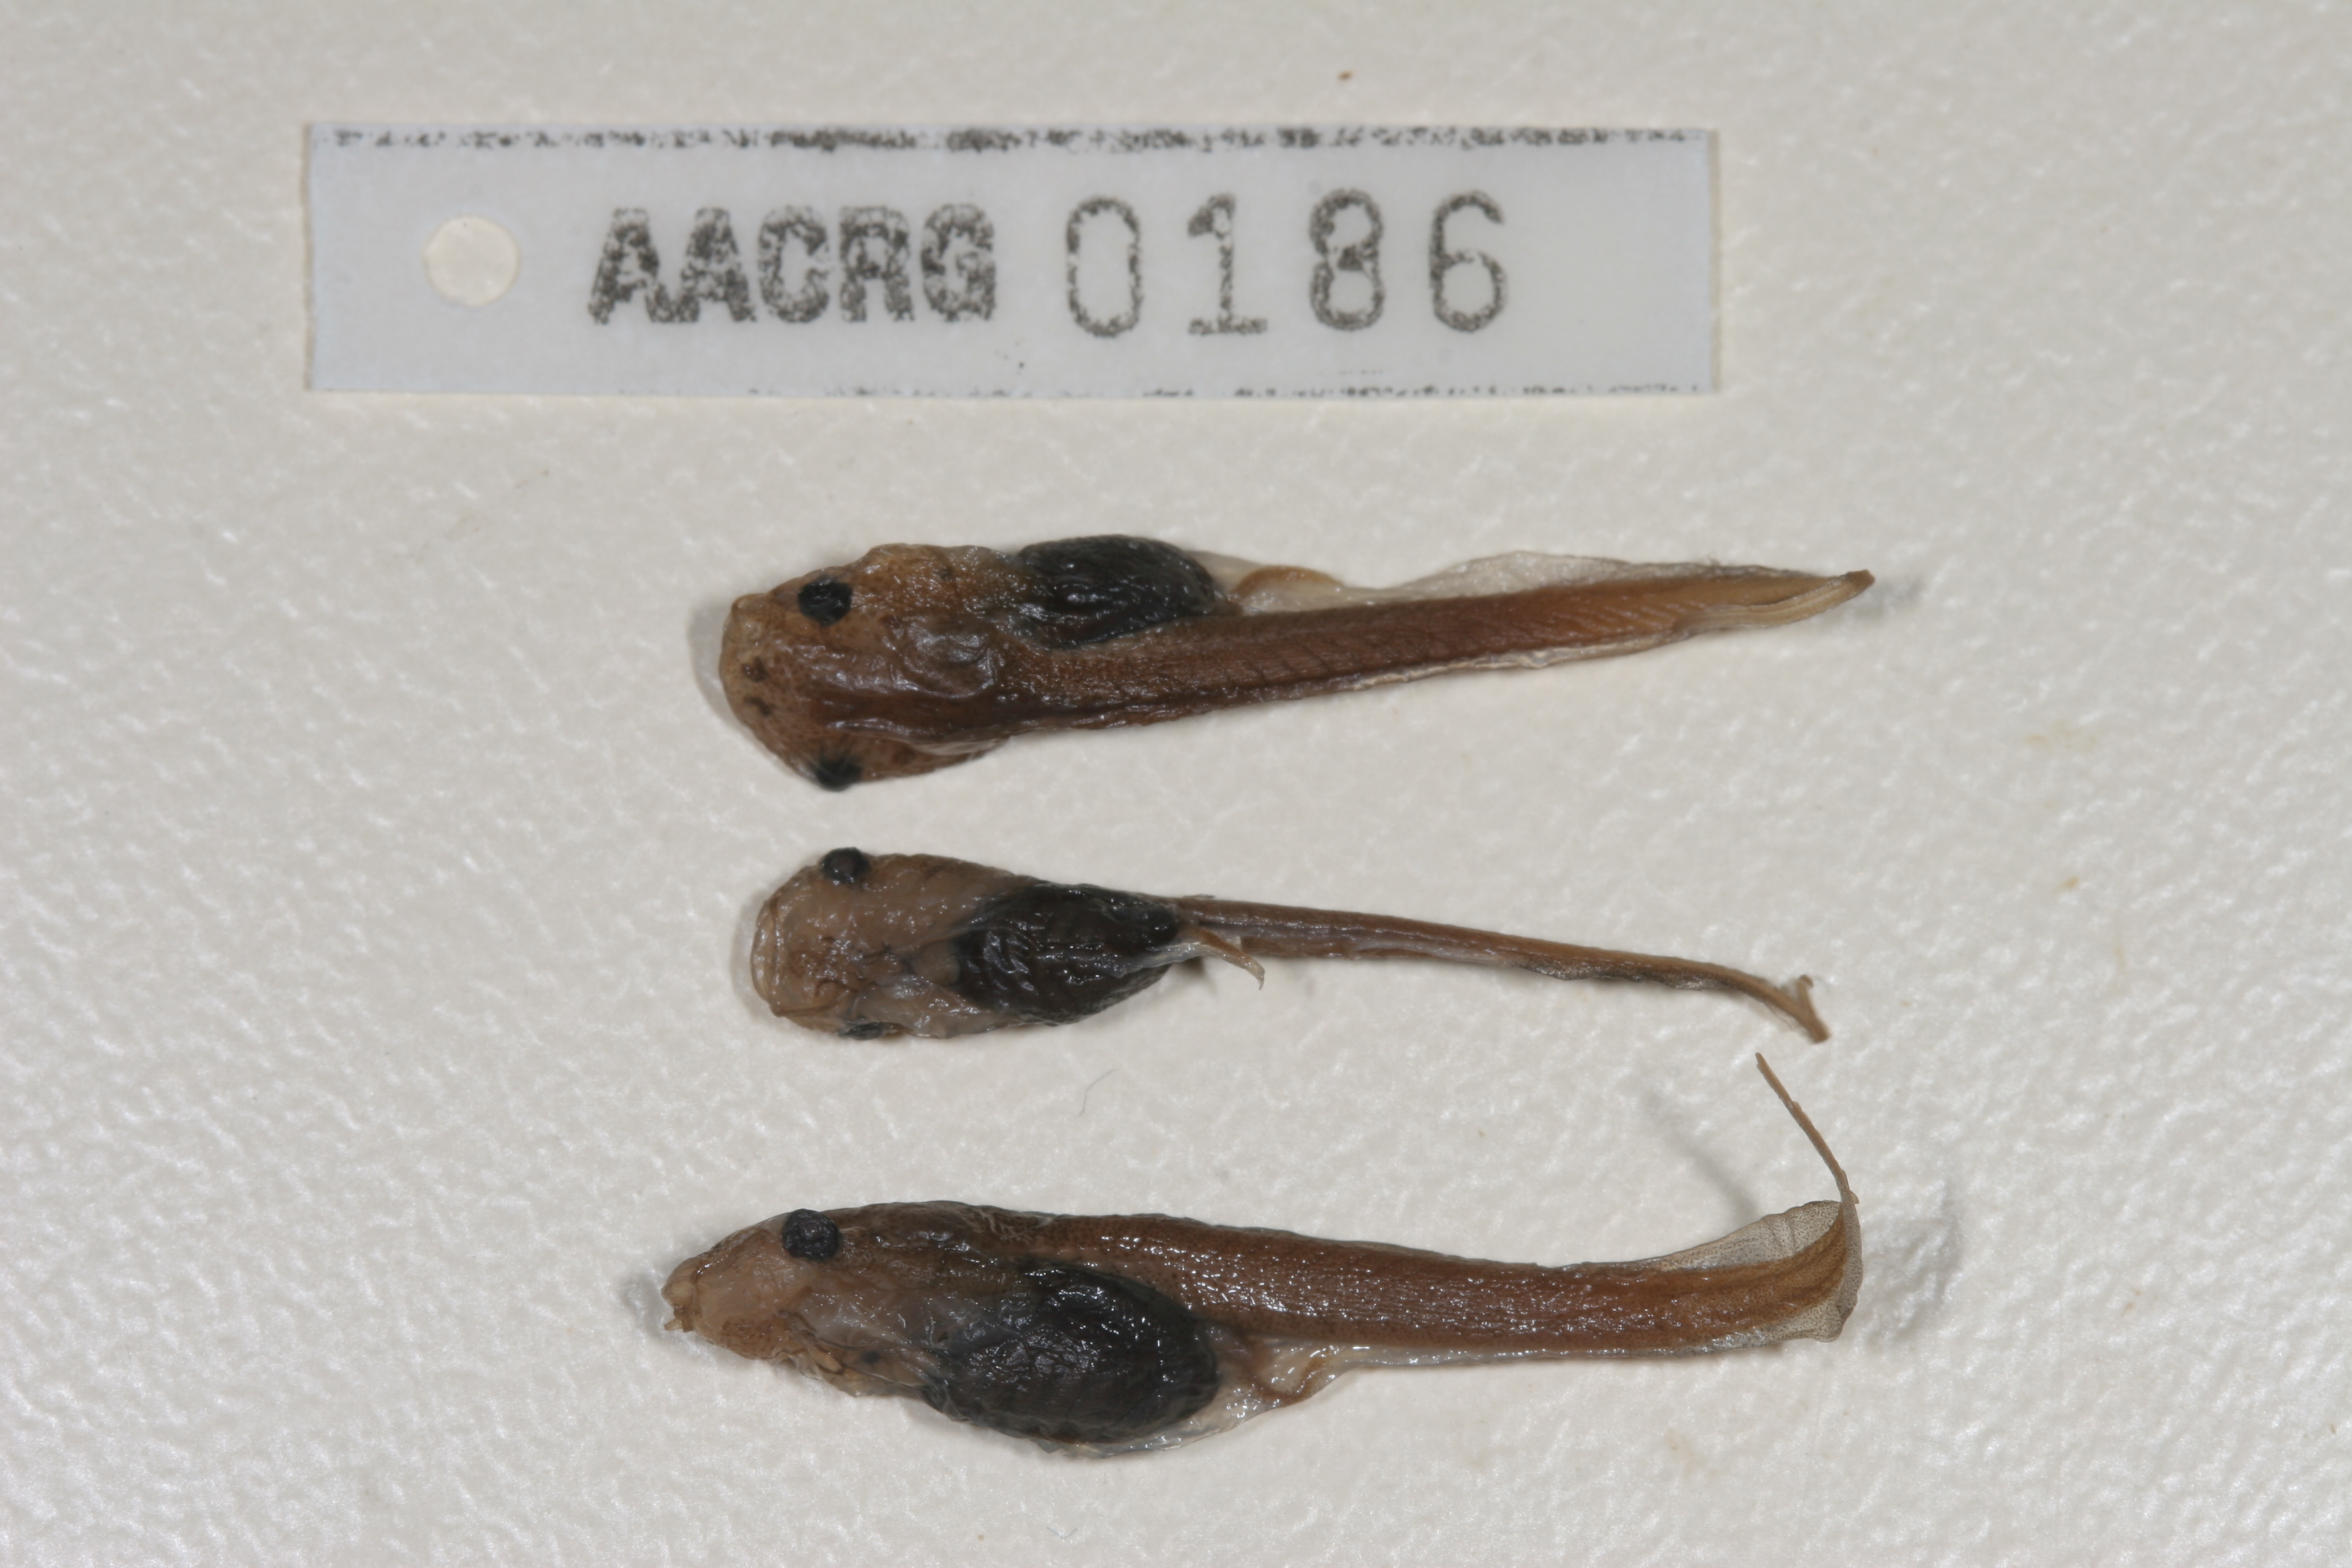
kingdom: Animalia
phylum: Chordata
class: Amphibia
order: Anura
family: Pipidae
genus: Xenopus
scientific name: Xenopus laevis
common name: African clawed frog
